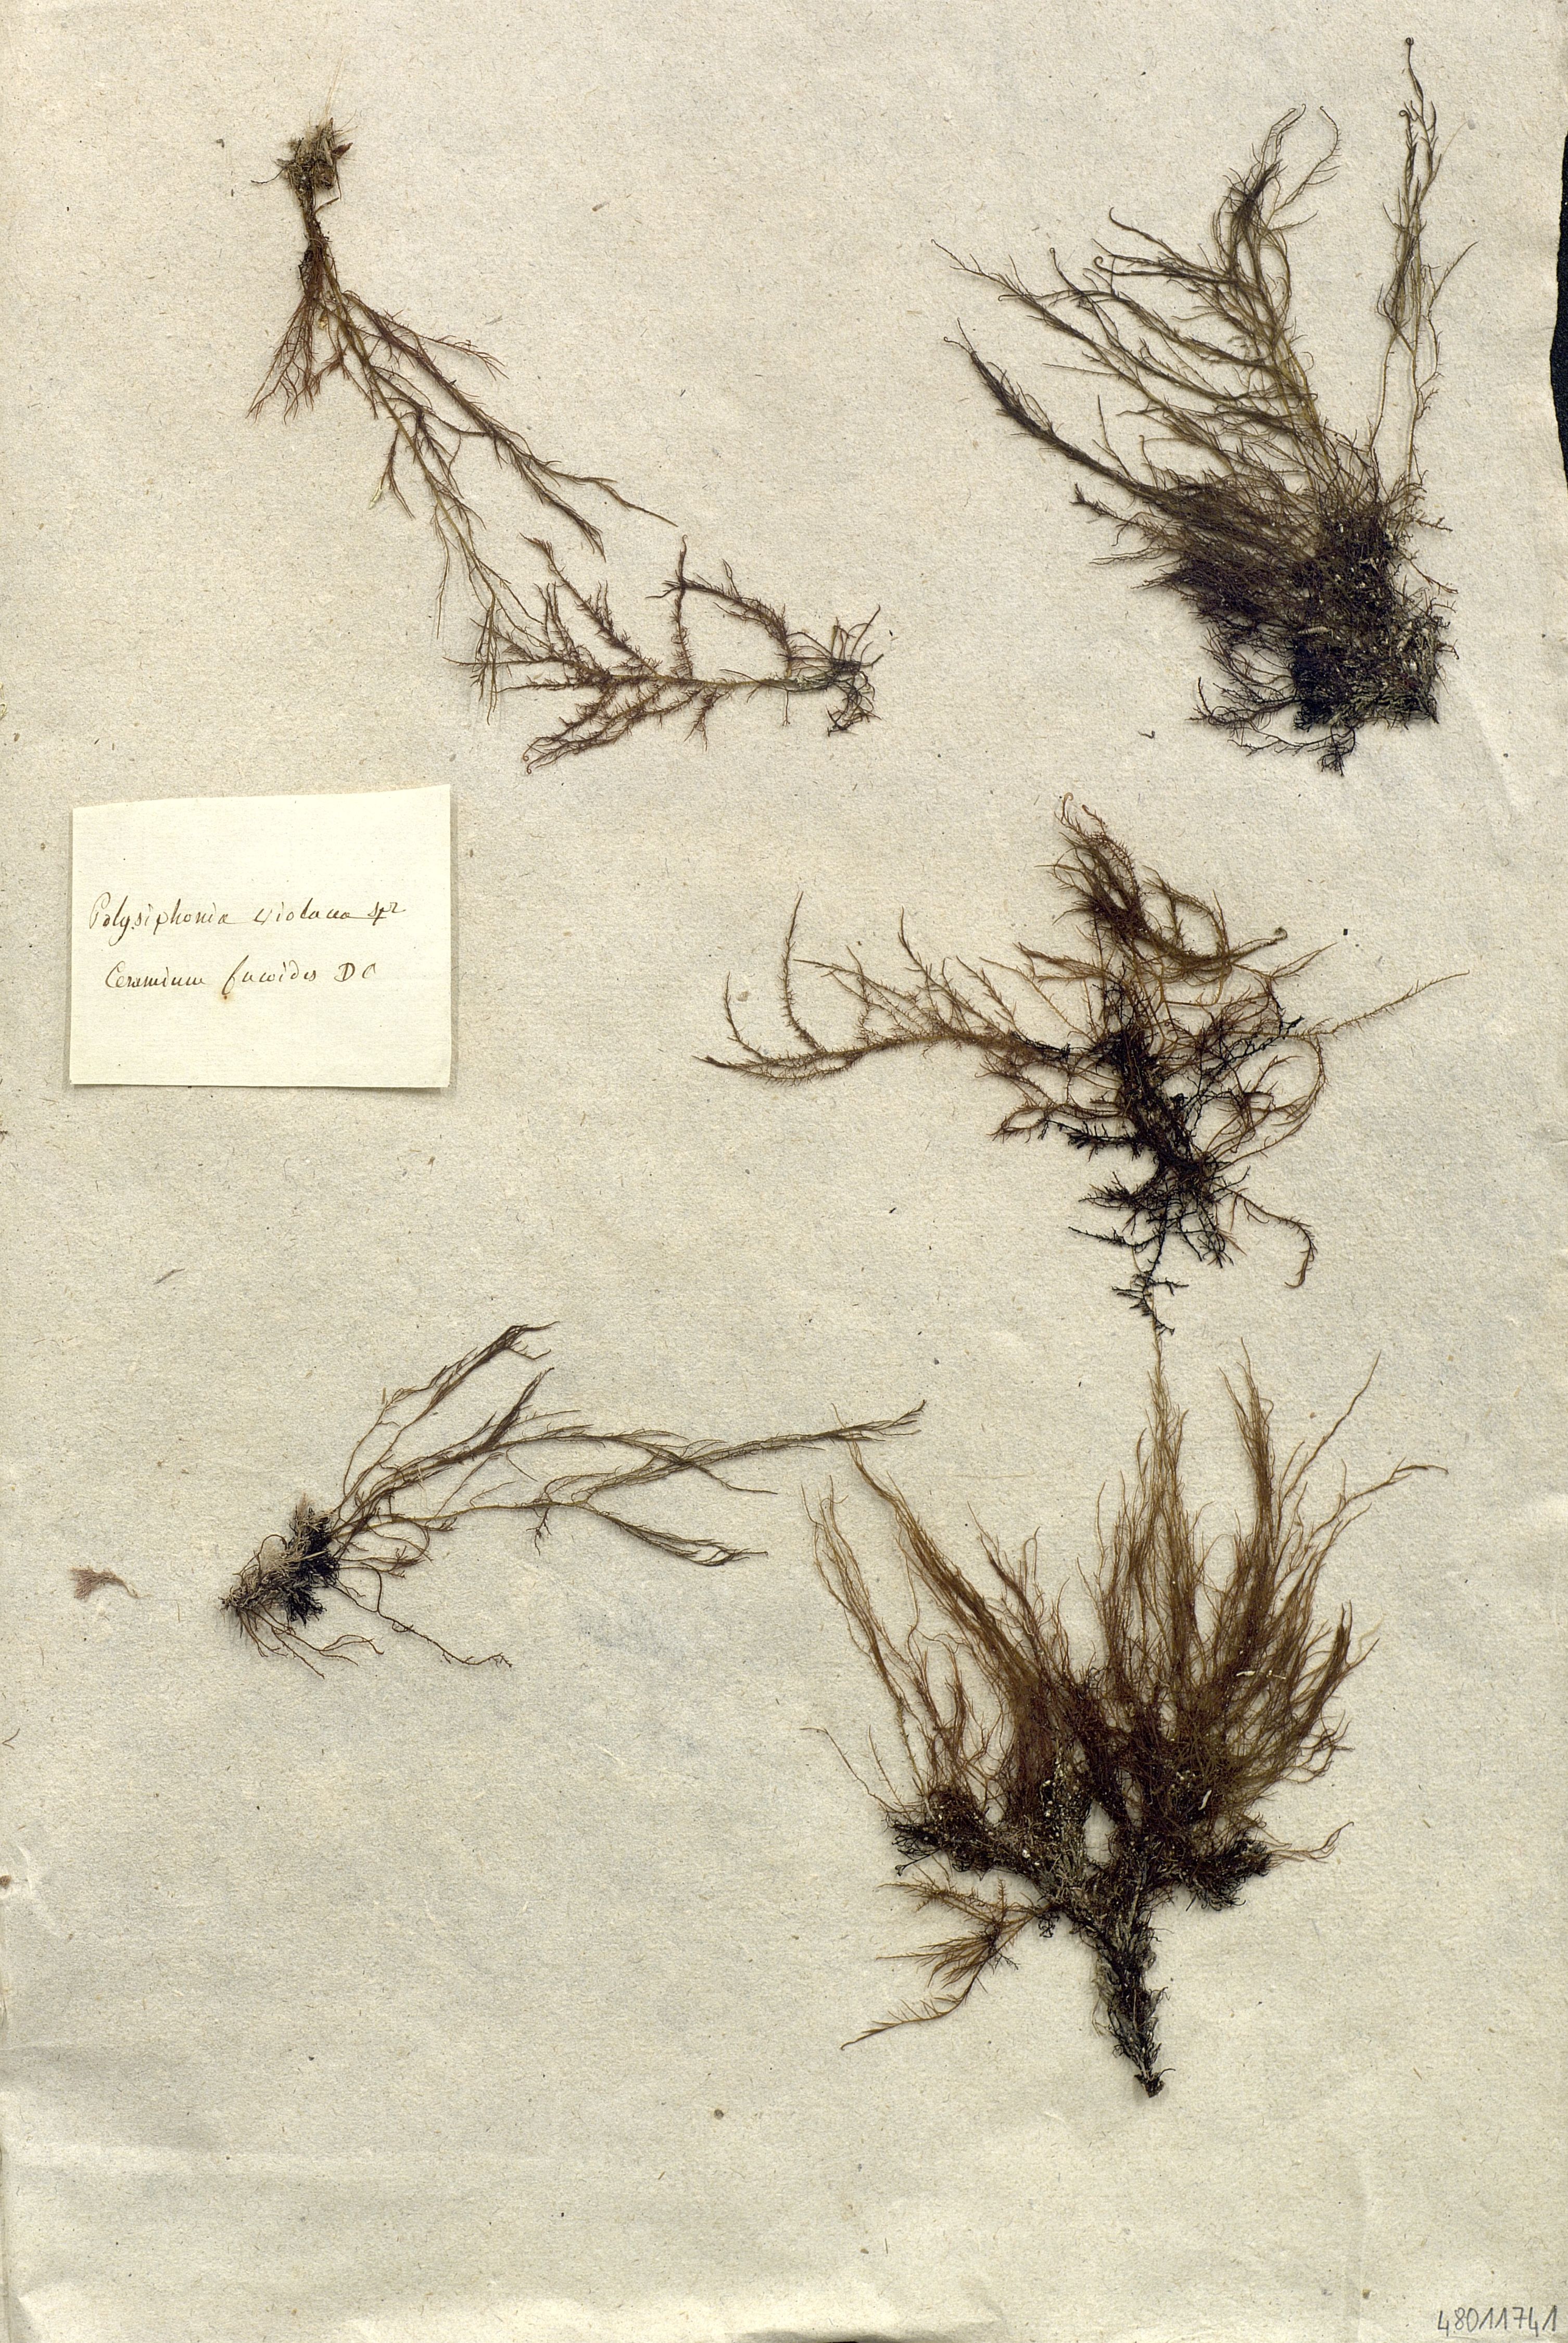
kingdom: Plantae
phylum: Rhodophyta
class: Florideophyceae
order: Ceramiales
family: Rhodomelaceae
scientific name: Rhodomelaceae
